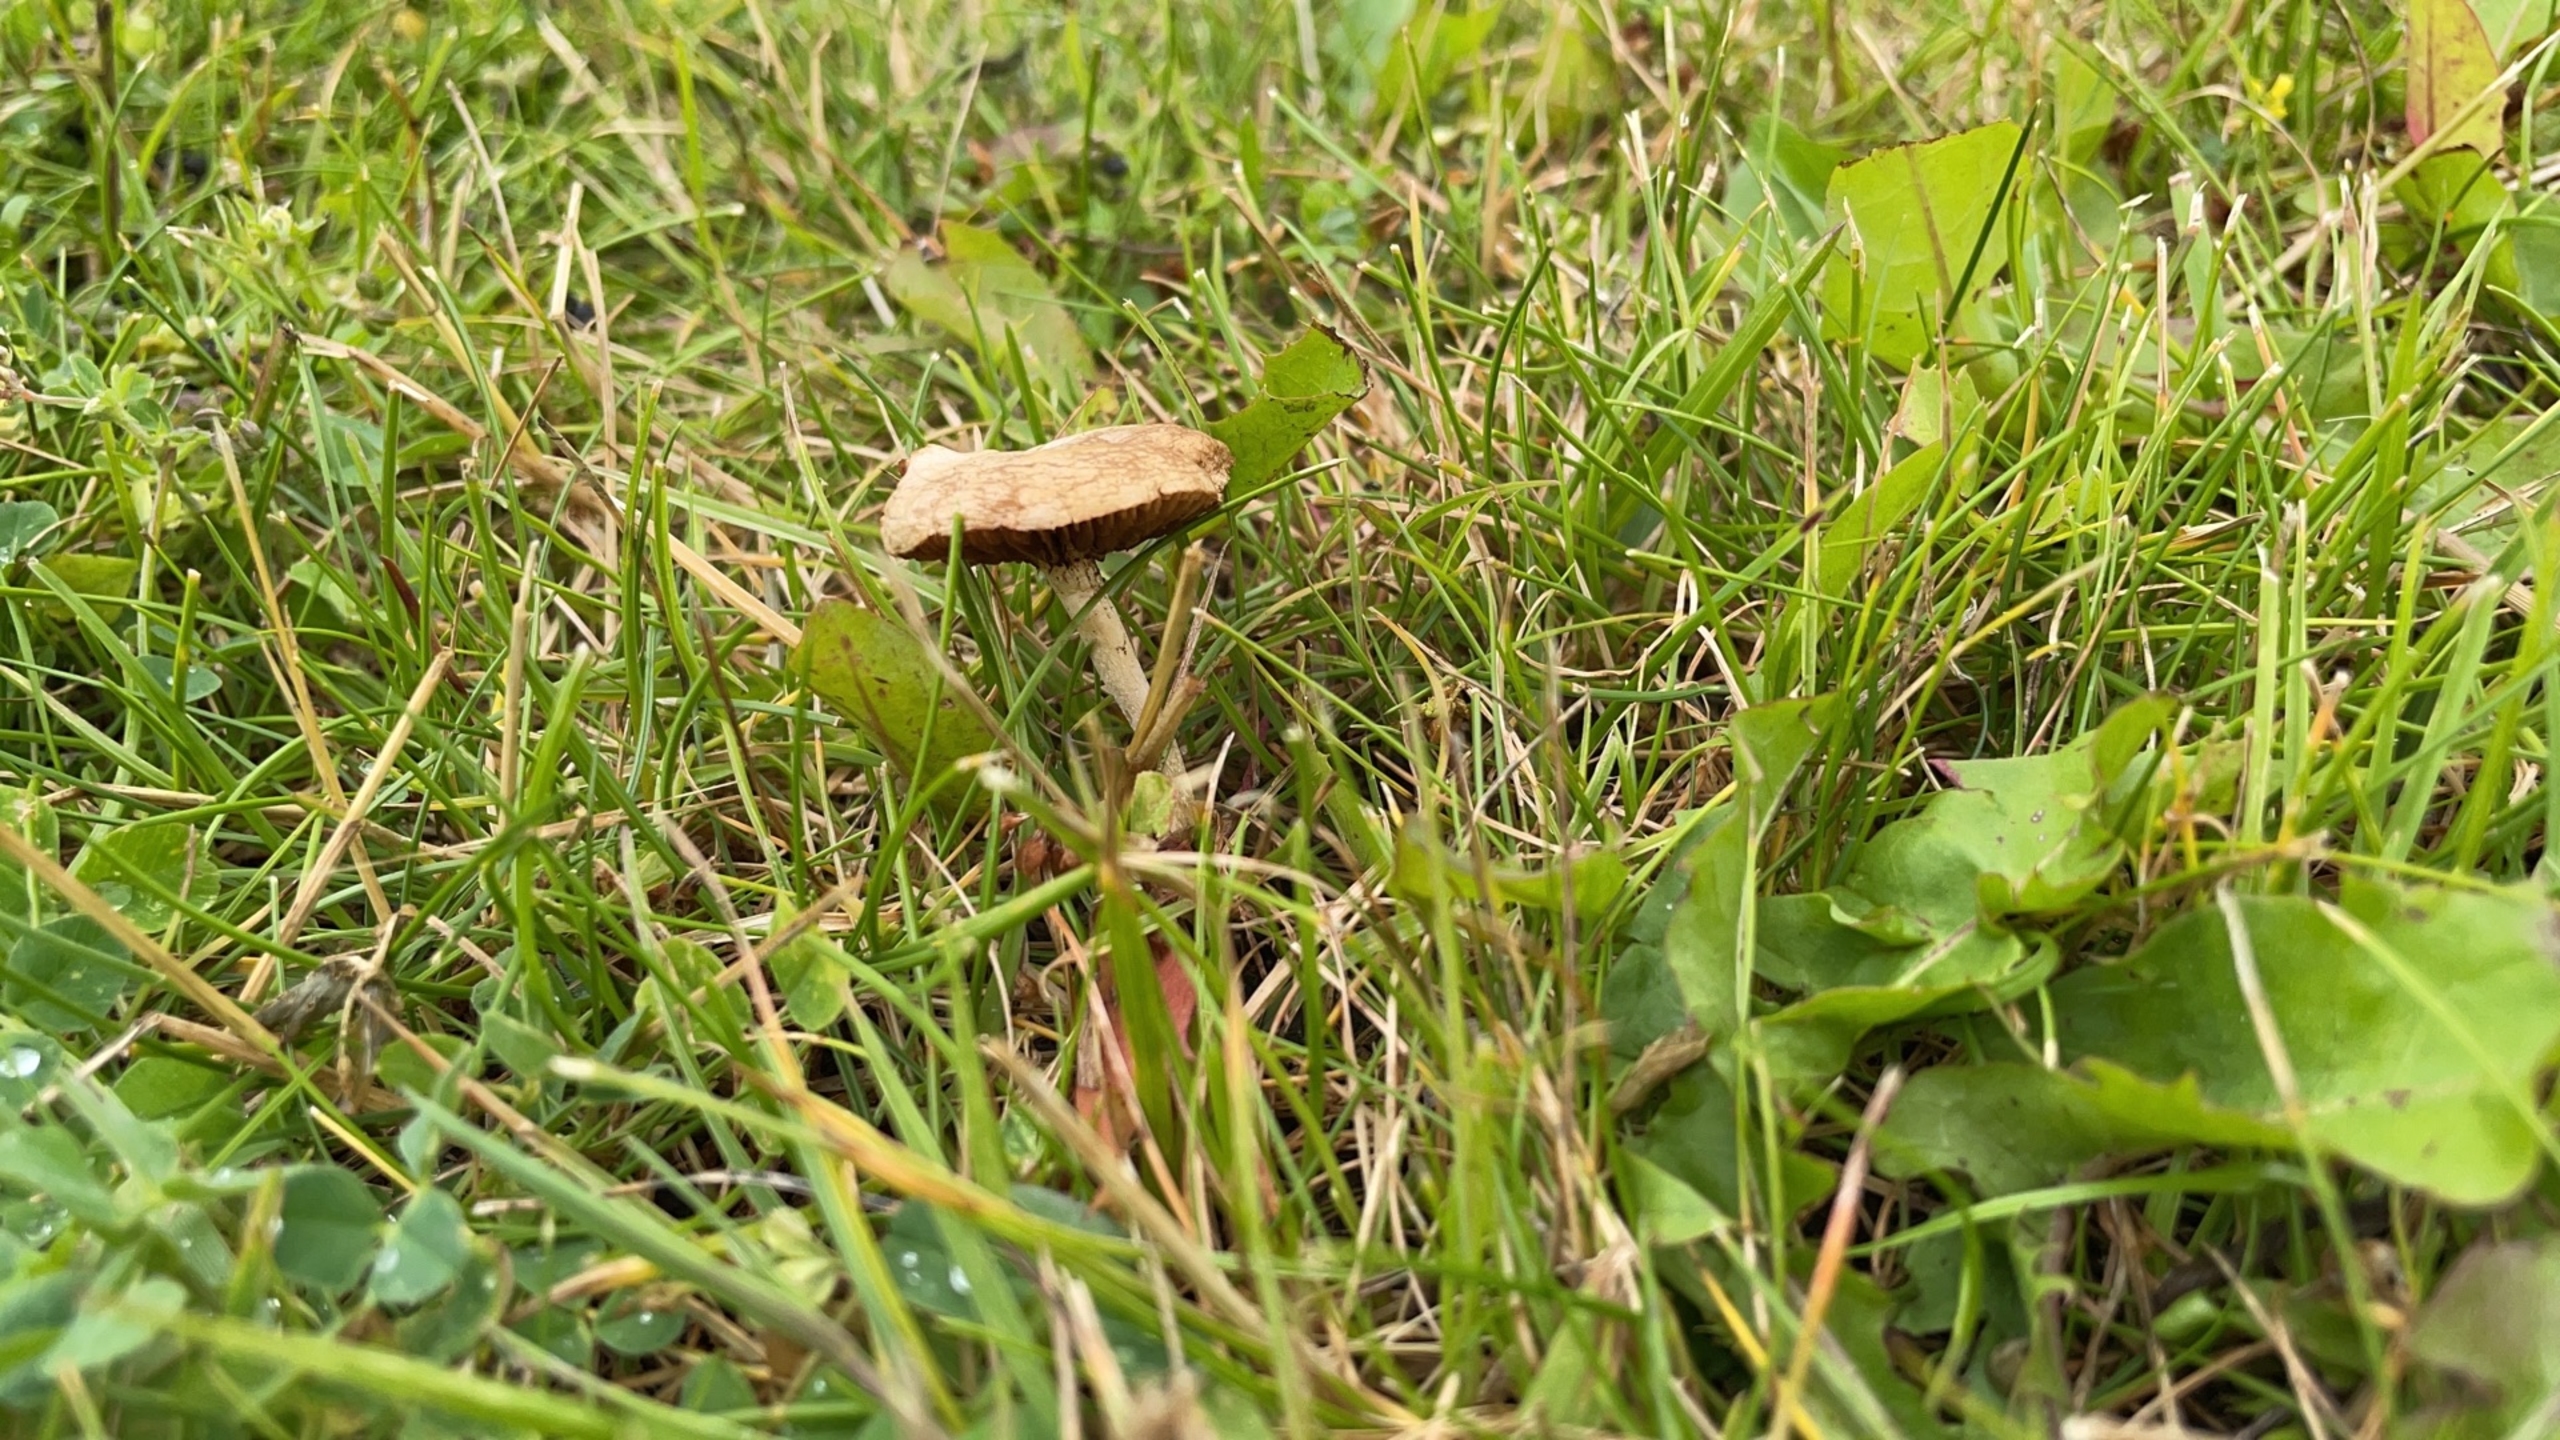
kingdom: Fungi
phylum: Basidiomycota
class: Agaricomycetes
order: Agaricales
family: Strophariaceae
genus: Agrocybe
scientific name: Agrocybe
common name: Agerhat
